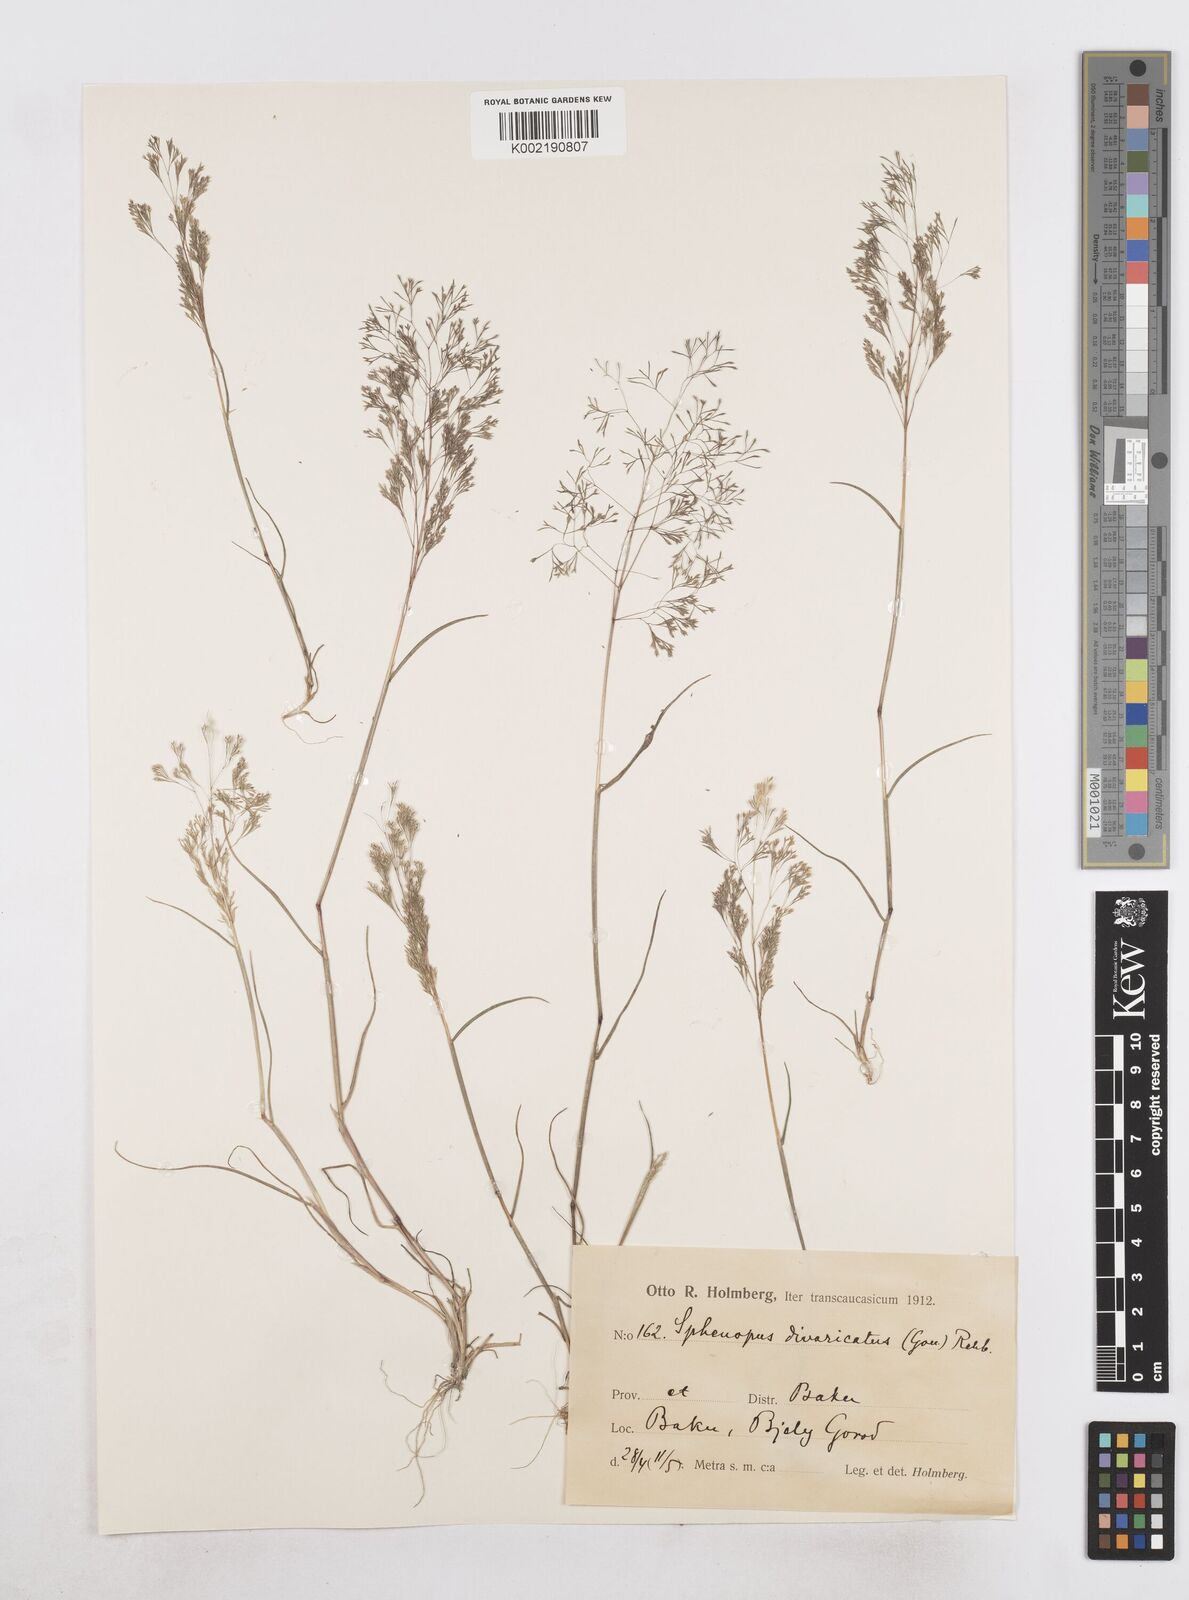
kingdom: Plantae
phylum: Tracheophyta
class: Liliopsida
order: Poales
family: Poaceae
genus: Sphenopus
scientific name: Sphenopus divaricatus
